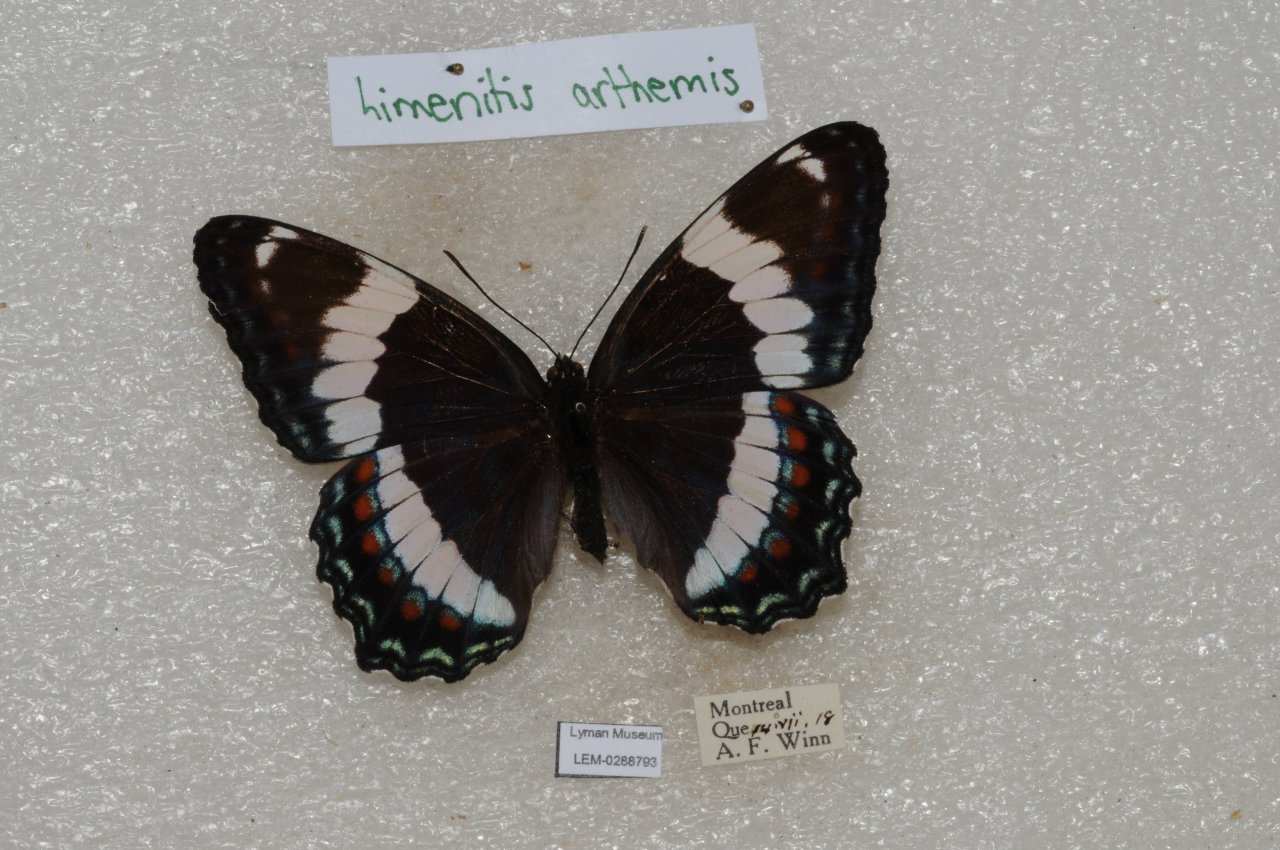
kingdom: Animalia
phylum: Arthropoda
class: Insecta
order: Lepidoptera
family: Nymphalidae
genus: Limenitis
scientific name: Limenitis arthemis
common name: Red-spotted Admiral
